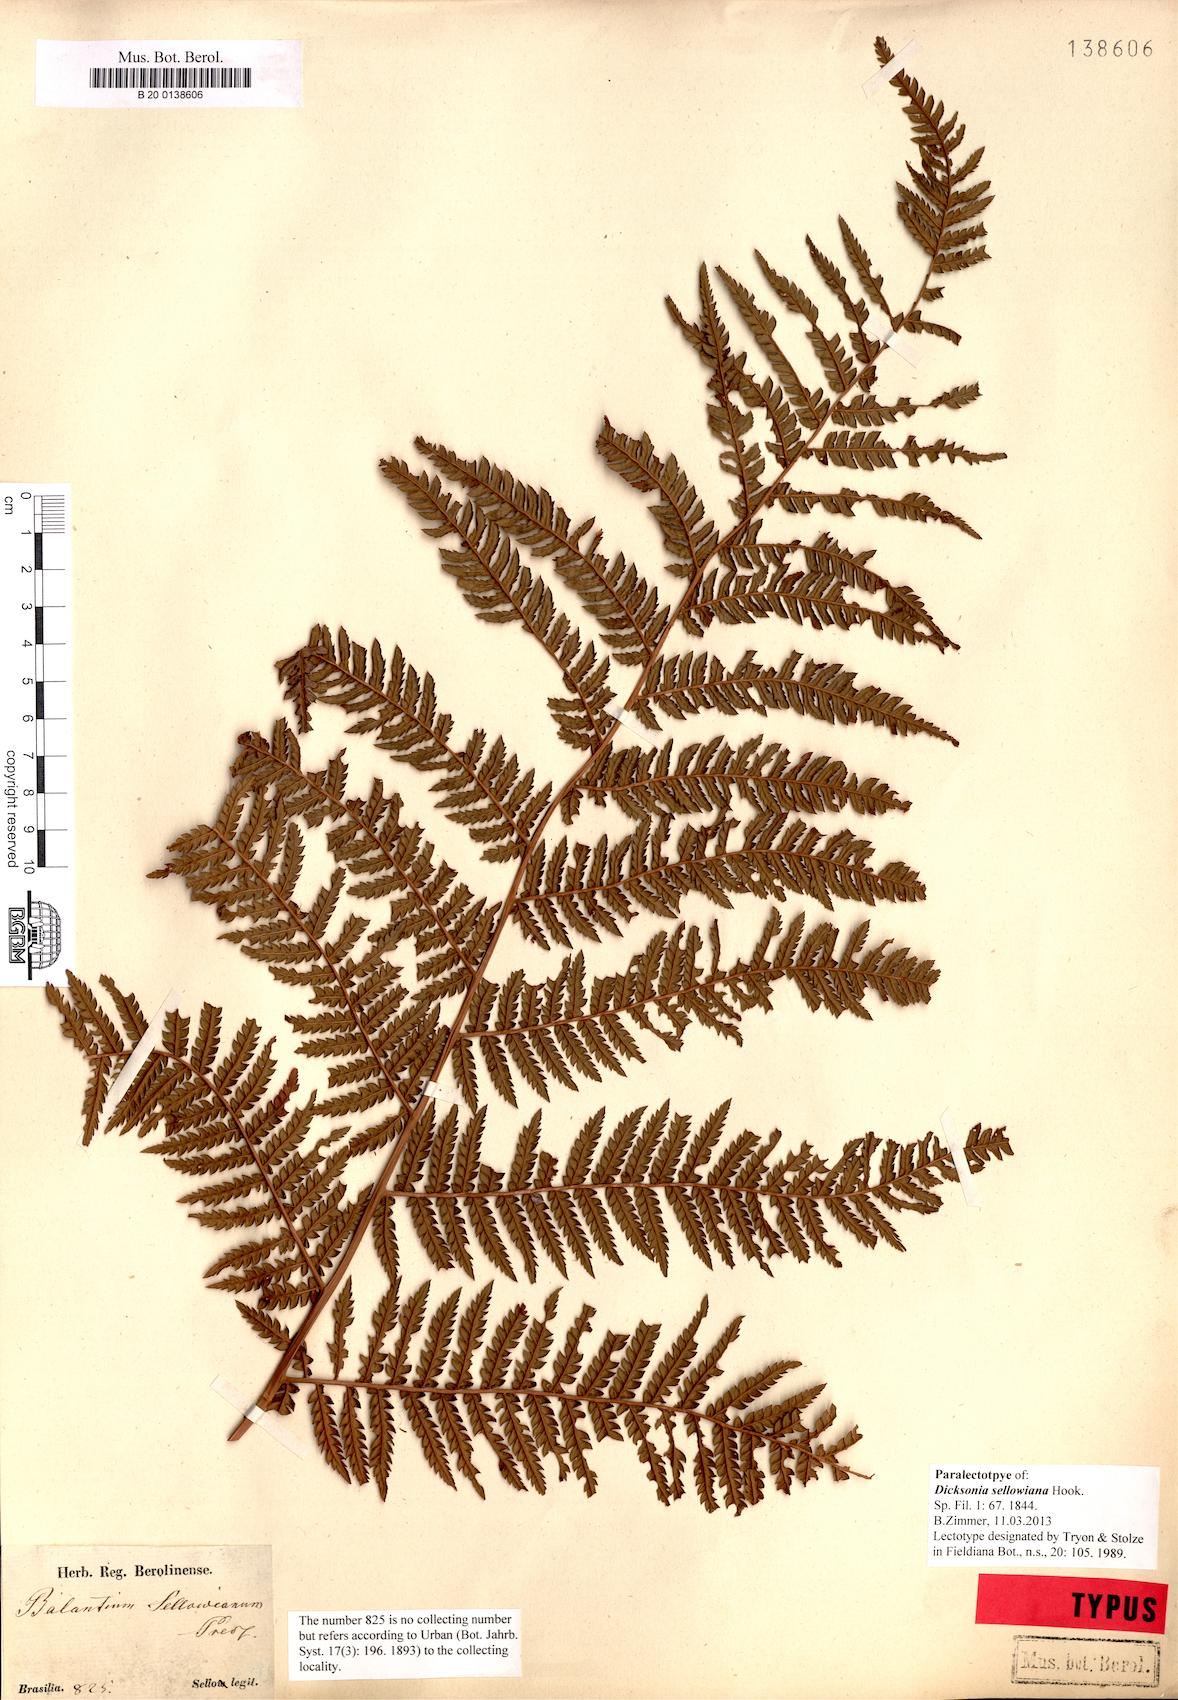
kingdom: Plantae
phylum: Tracheophyta
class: Polypodiopsida
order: Cyatheales
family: Dicksoniaceae
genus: Dicksonia
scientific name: Dicksonia sellowiana
